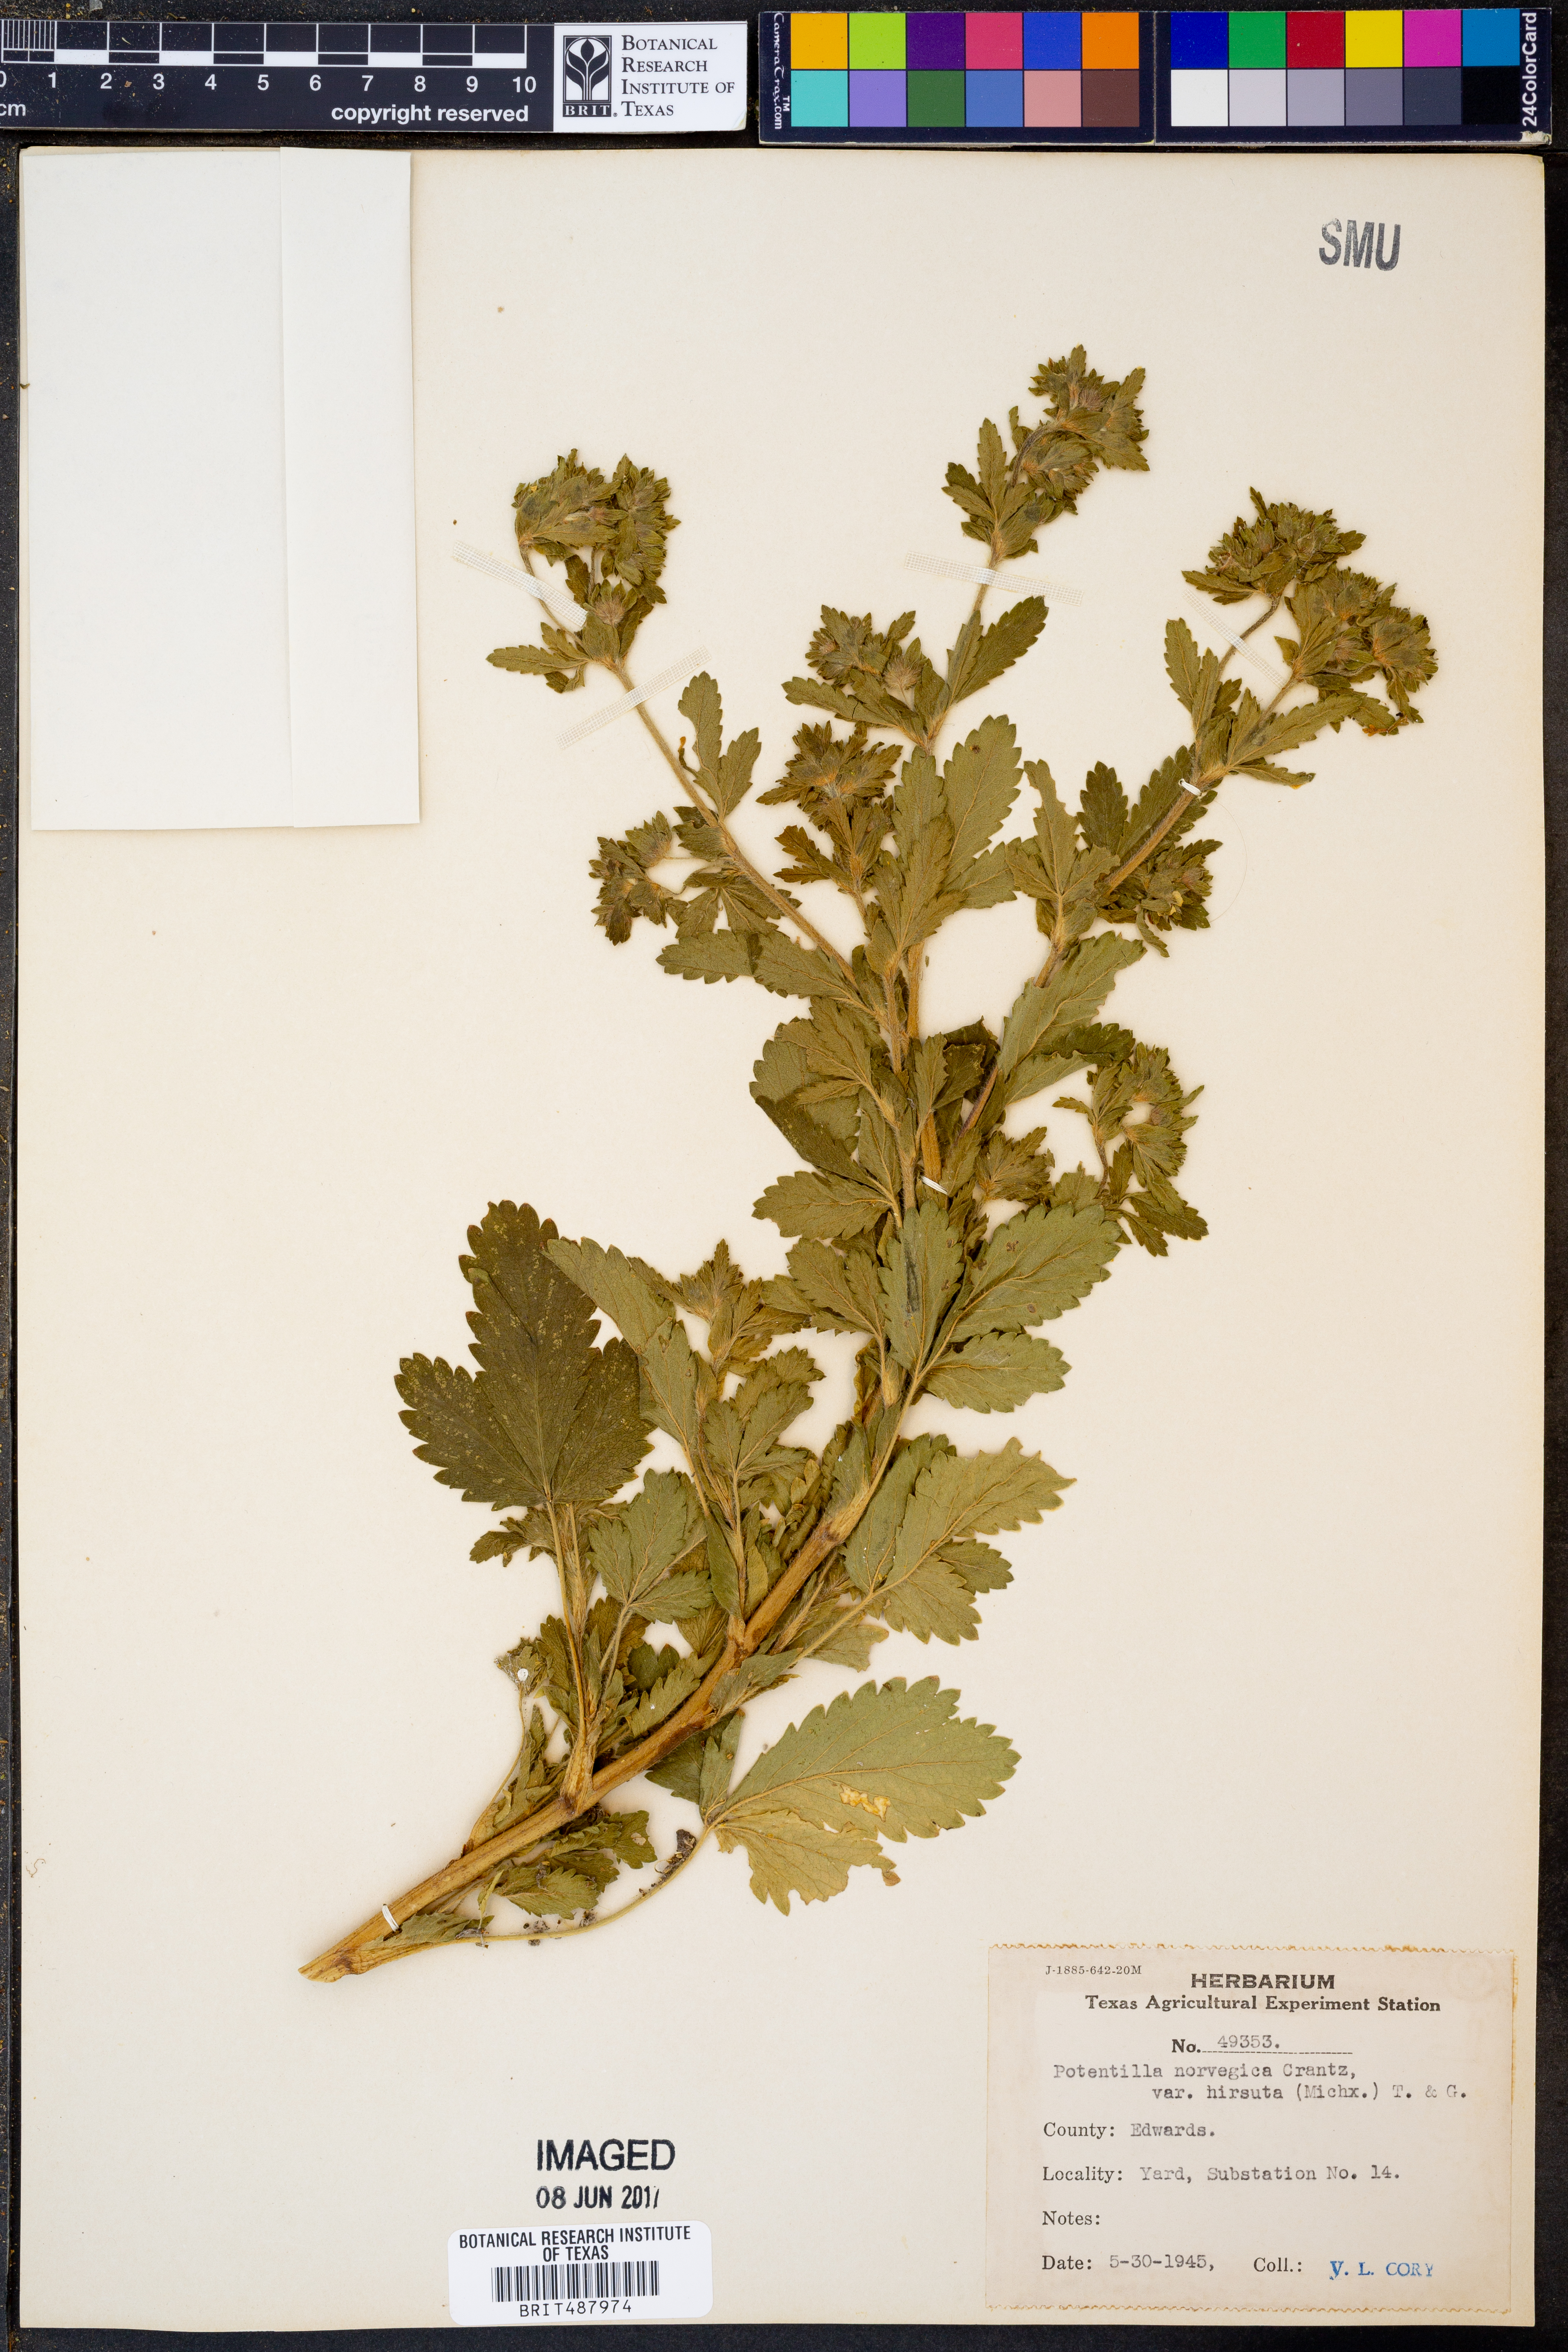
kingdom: Plantae
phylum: Tracheophyta
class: Magnoliopsida
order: Rosales
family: Rosaceae
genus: Potentilla
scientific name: Potentilla norvegica
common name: Ternate-leaved cinquefoil
